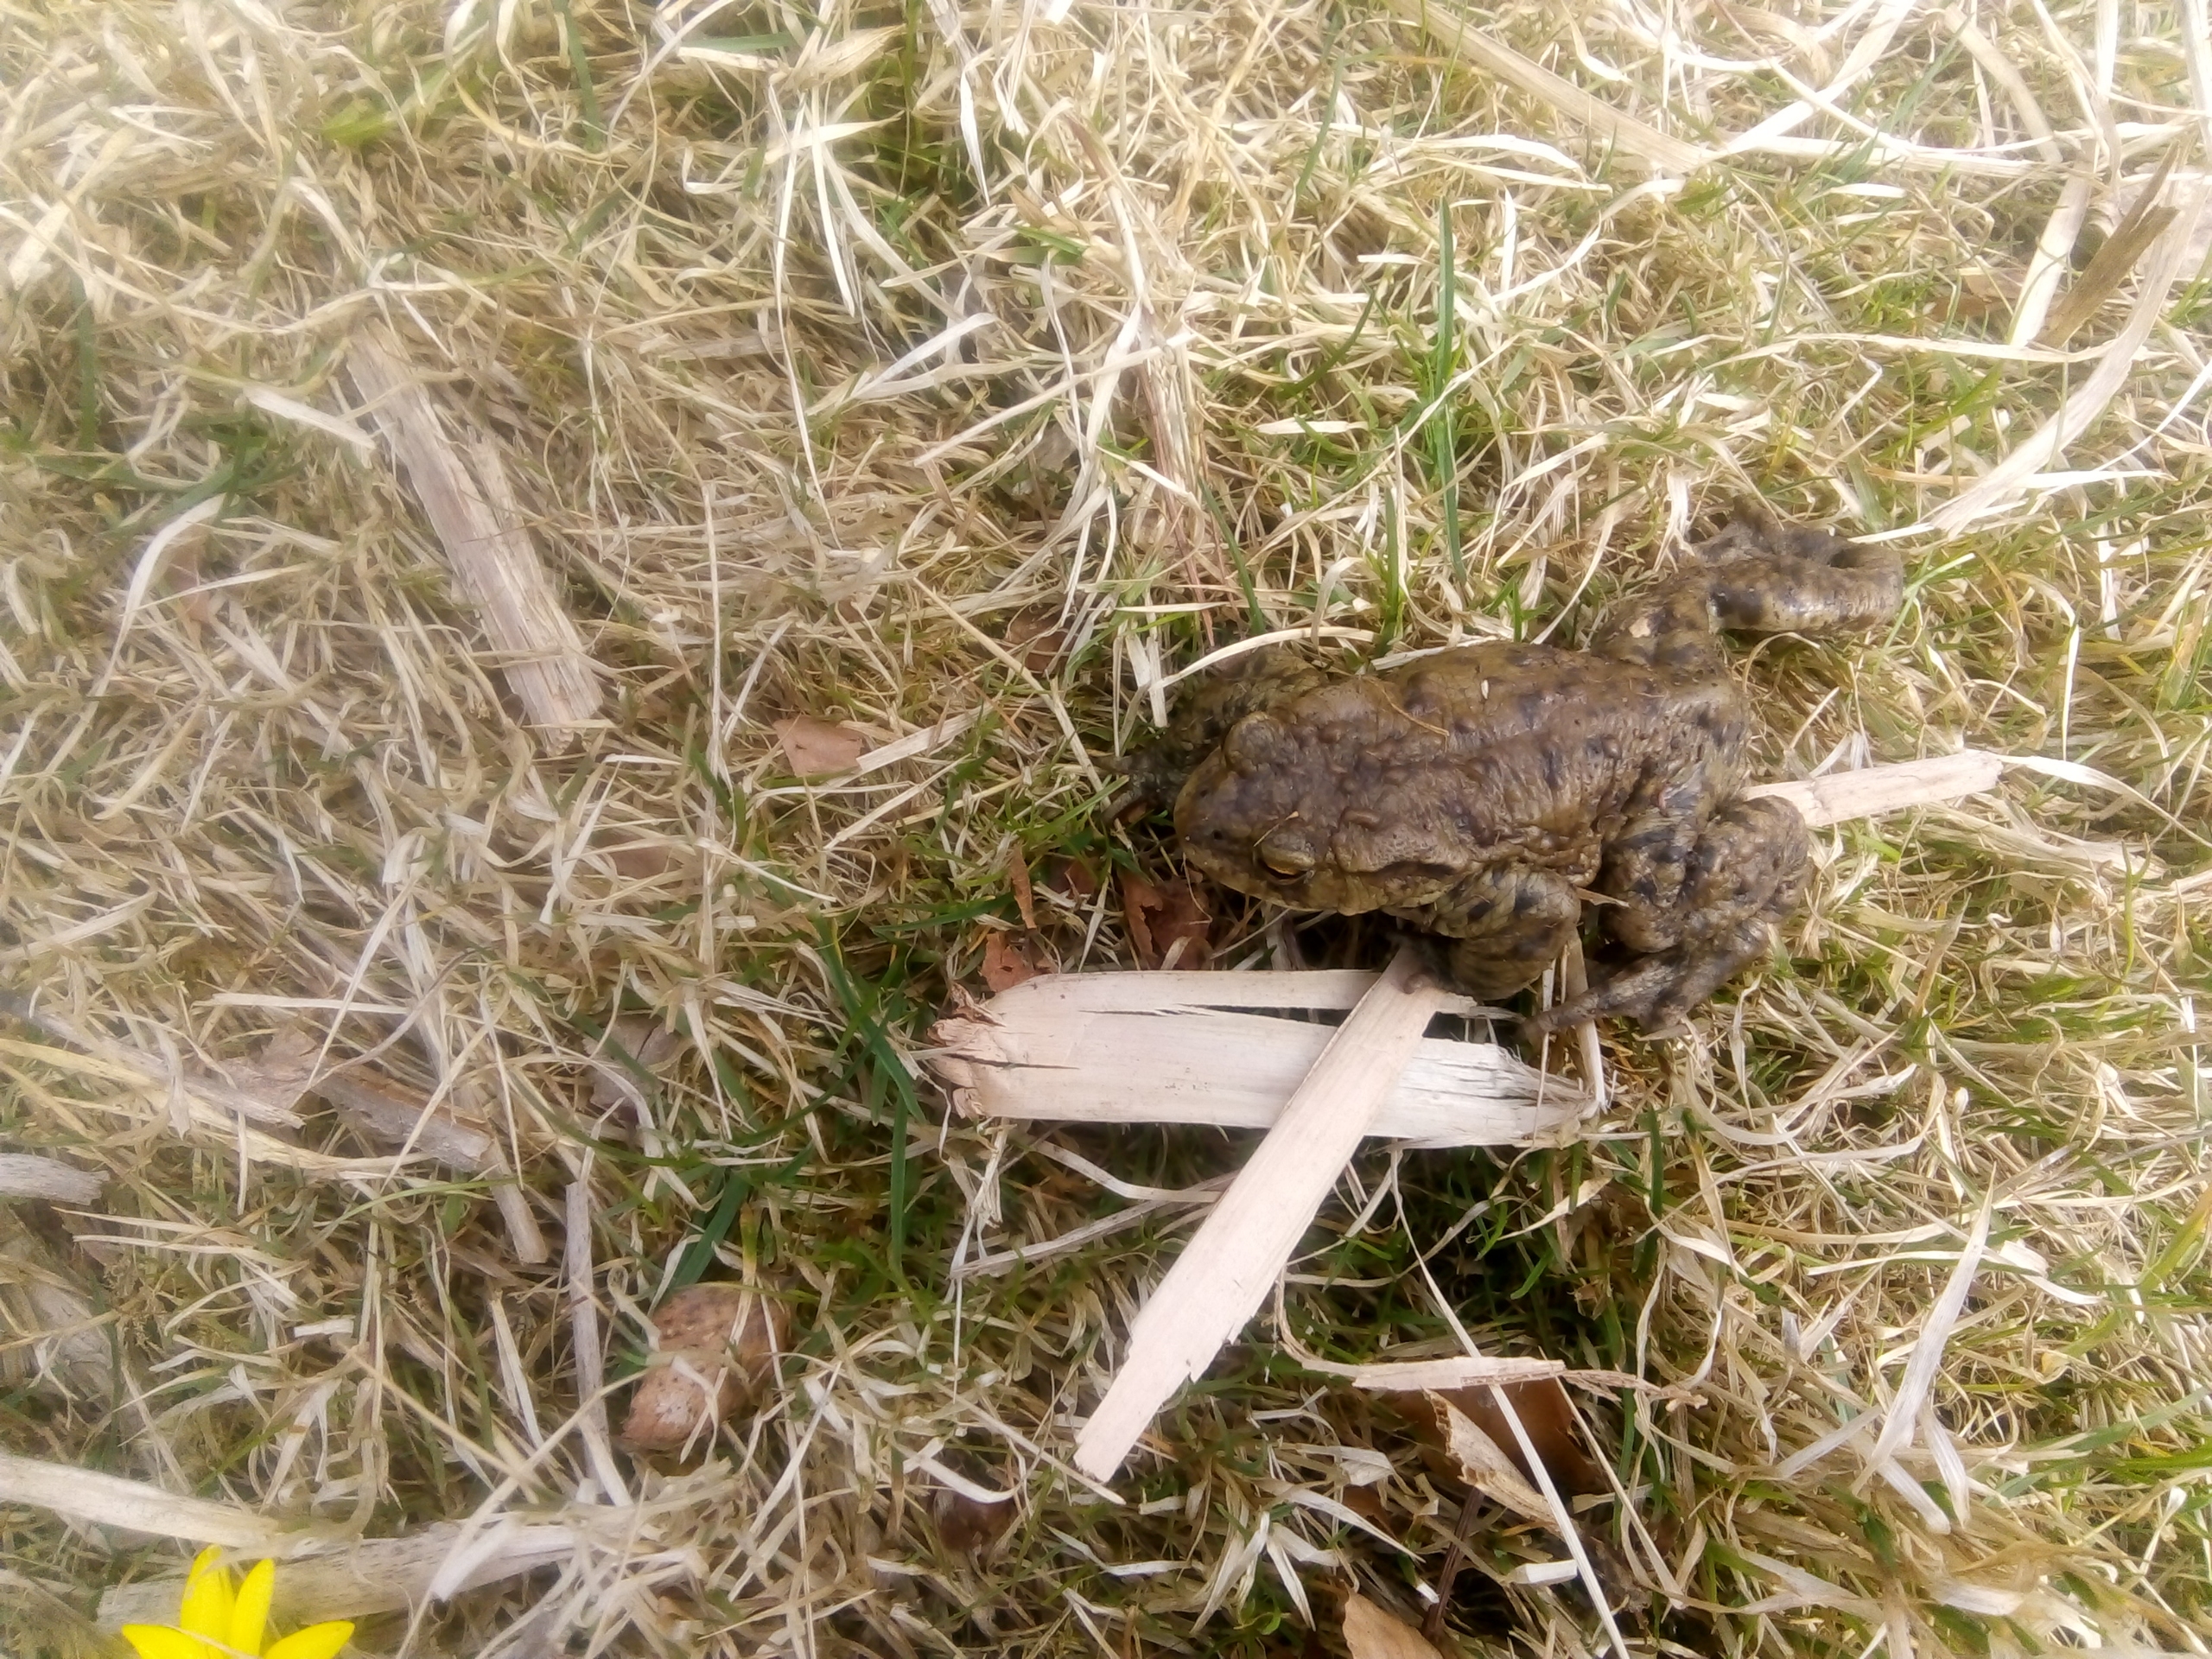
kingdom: Animalia
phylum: Chordata
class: Amphibia
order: Anura
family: Bufonidae
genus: Bufo
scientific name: Bufo bufo
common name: Skrubtudse
